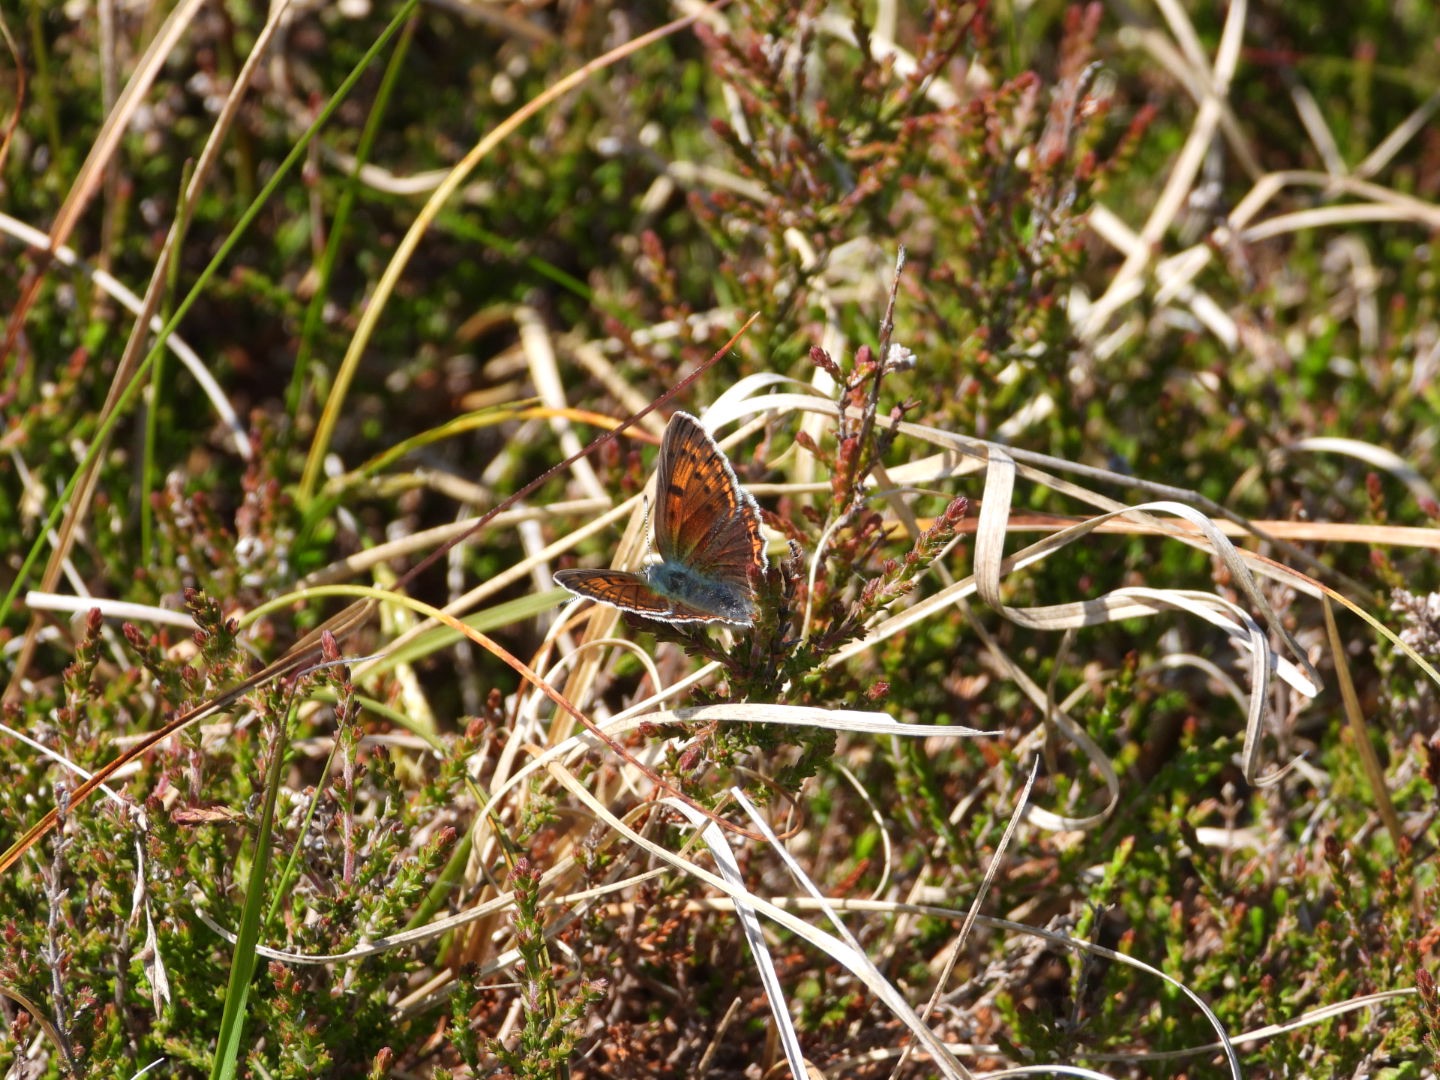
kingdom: Animalia
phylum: Arthropoda
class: Insecta
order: Lepidoptera
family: Lycaenidae
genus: Palaeochrysophanus
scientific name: Palaeochrysophanus hippothoe
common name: Violetrandet ildfugl
